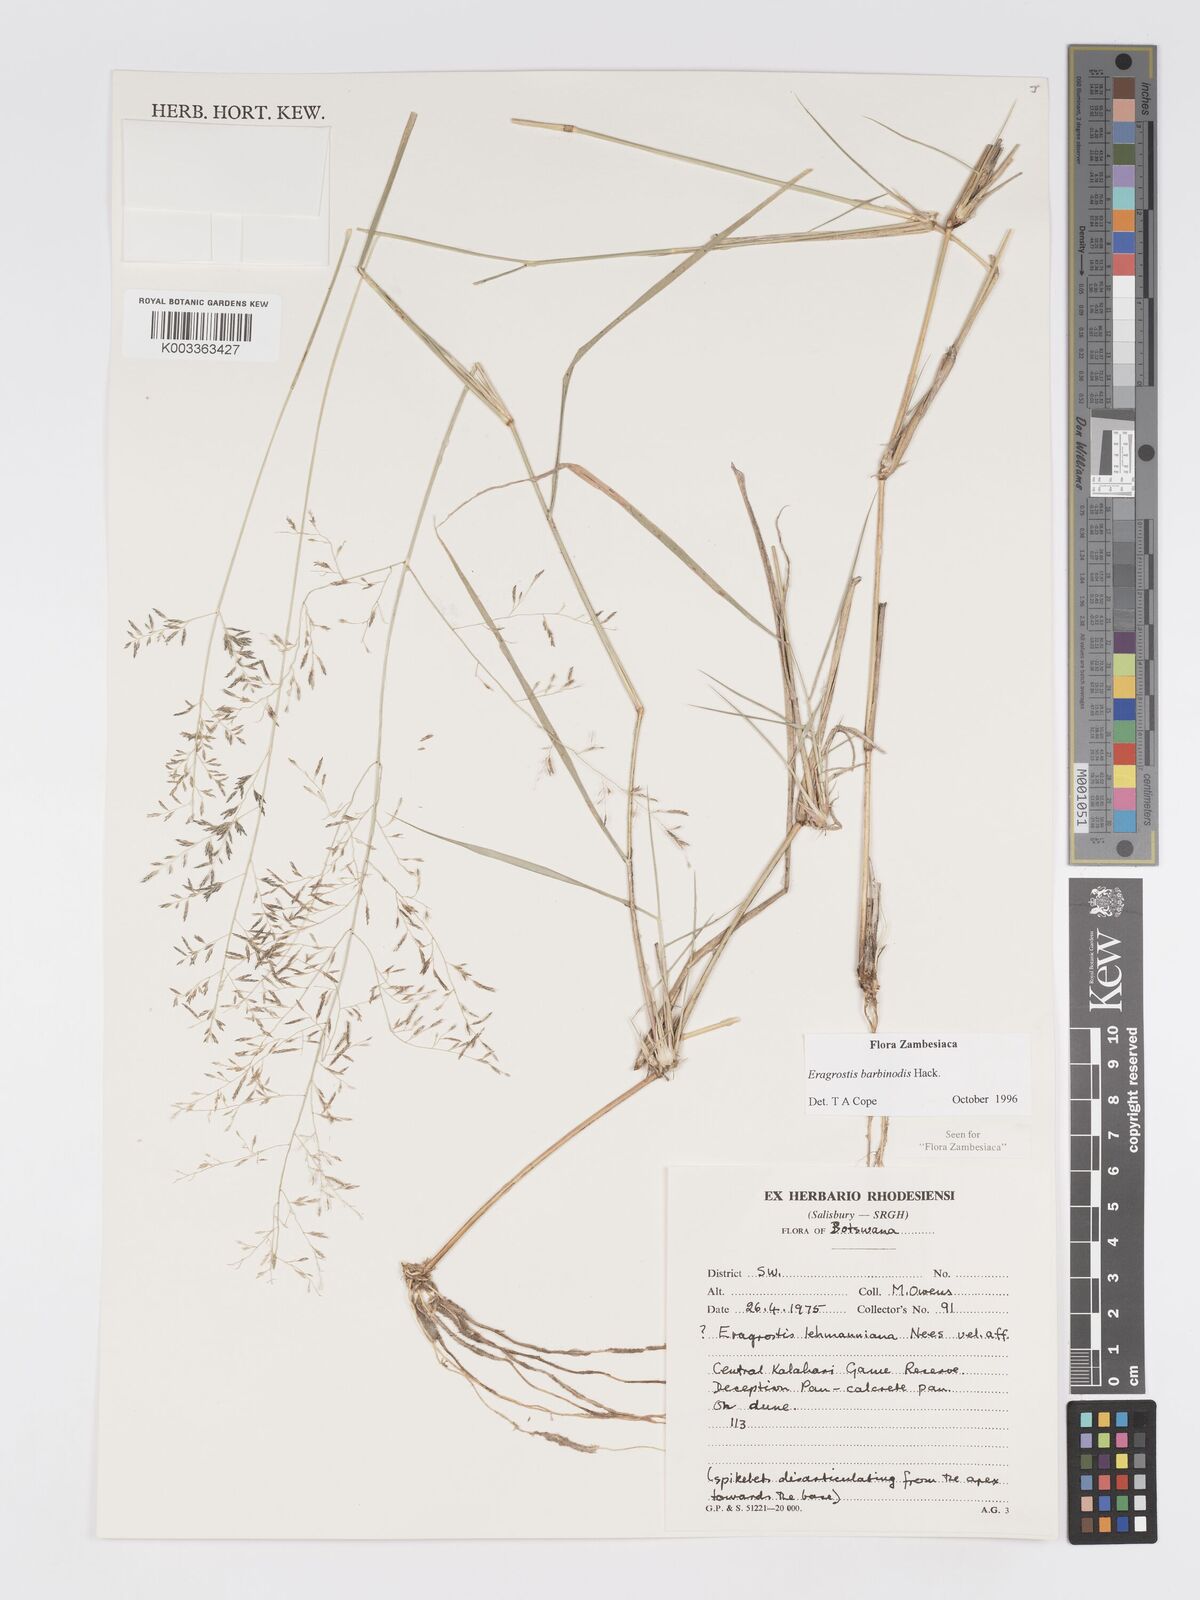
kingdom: Plantae
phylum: Tracheophyta
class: Liliopsida
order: Poales
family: Poaceae
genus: Eragrostis
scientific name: Eragrostis barbinodis
